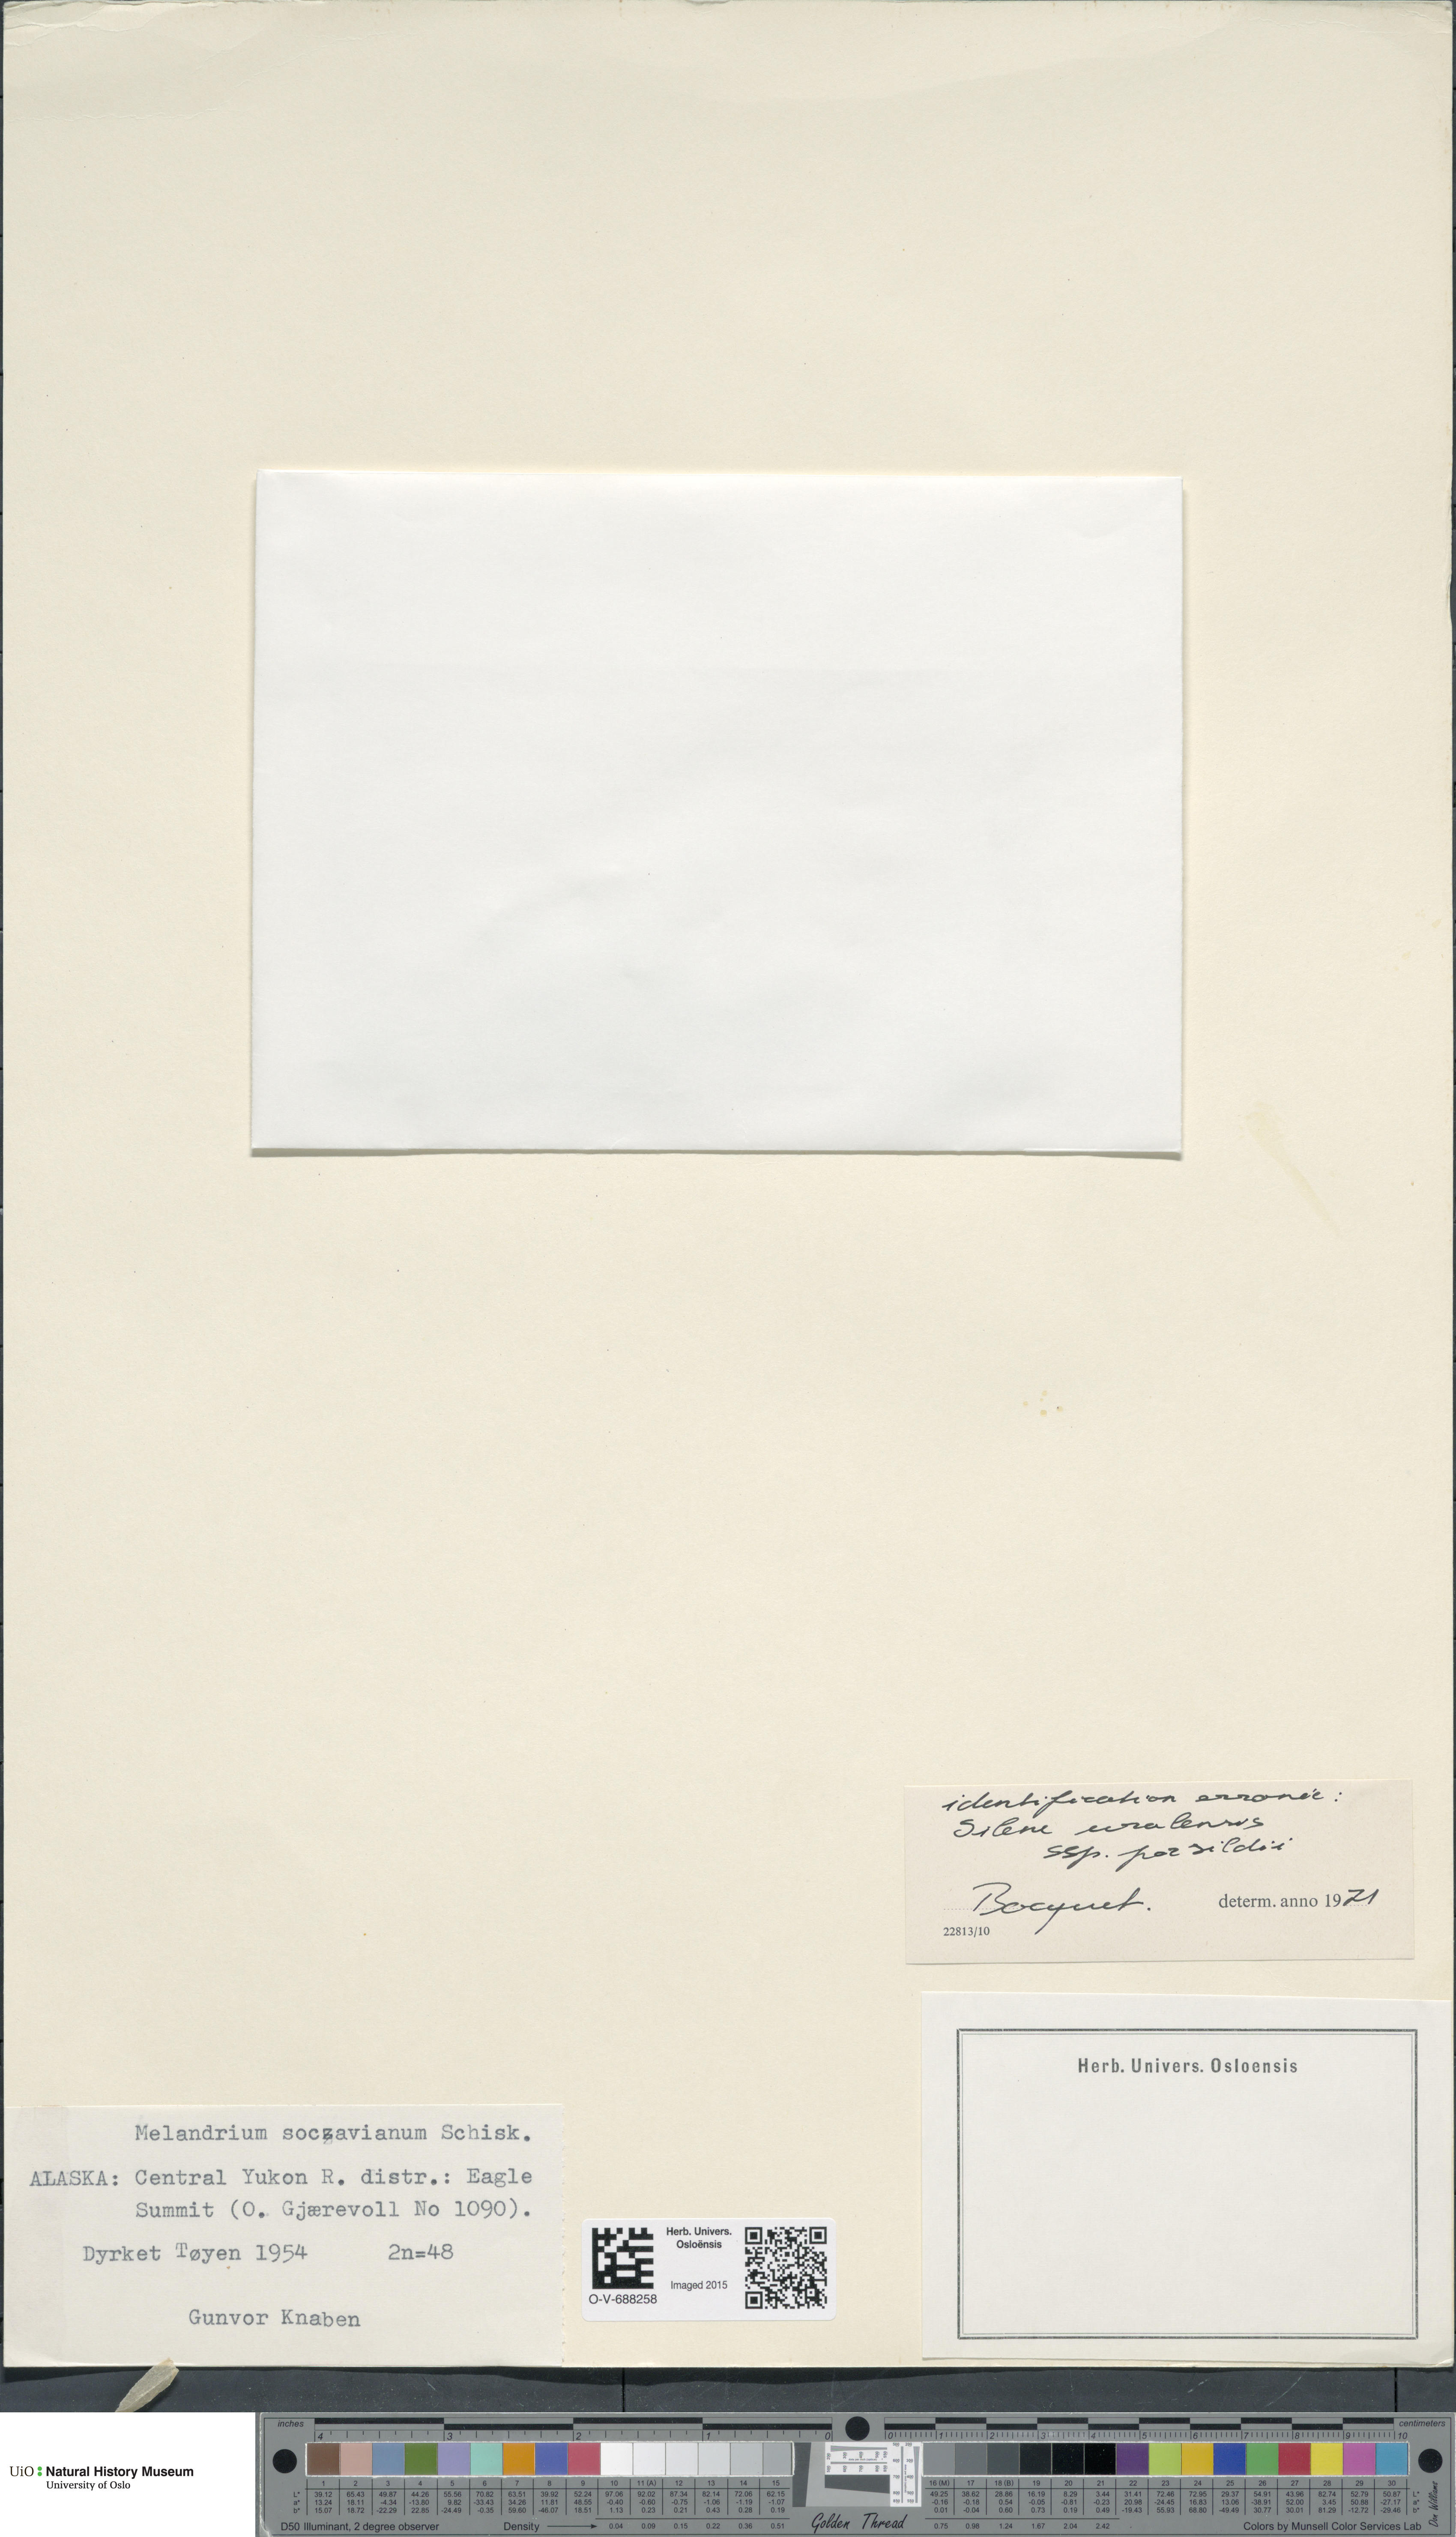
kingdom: Plantae
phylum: Tracheophyta
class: Magnoliopsida
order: Caryophyllales
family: Caryophyllaceae
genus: Silene
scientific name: Silene uralensis
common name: Nodding campion
